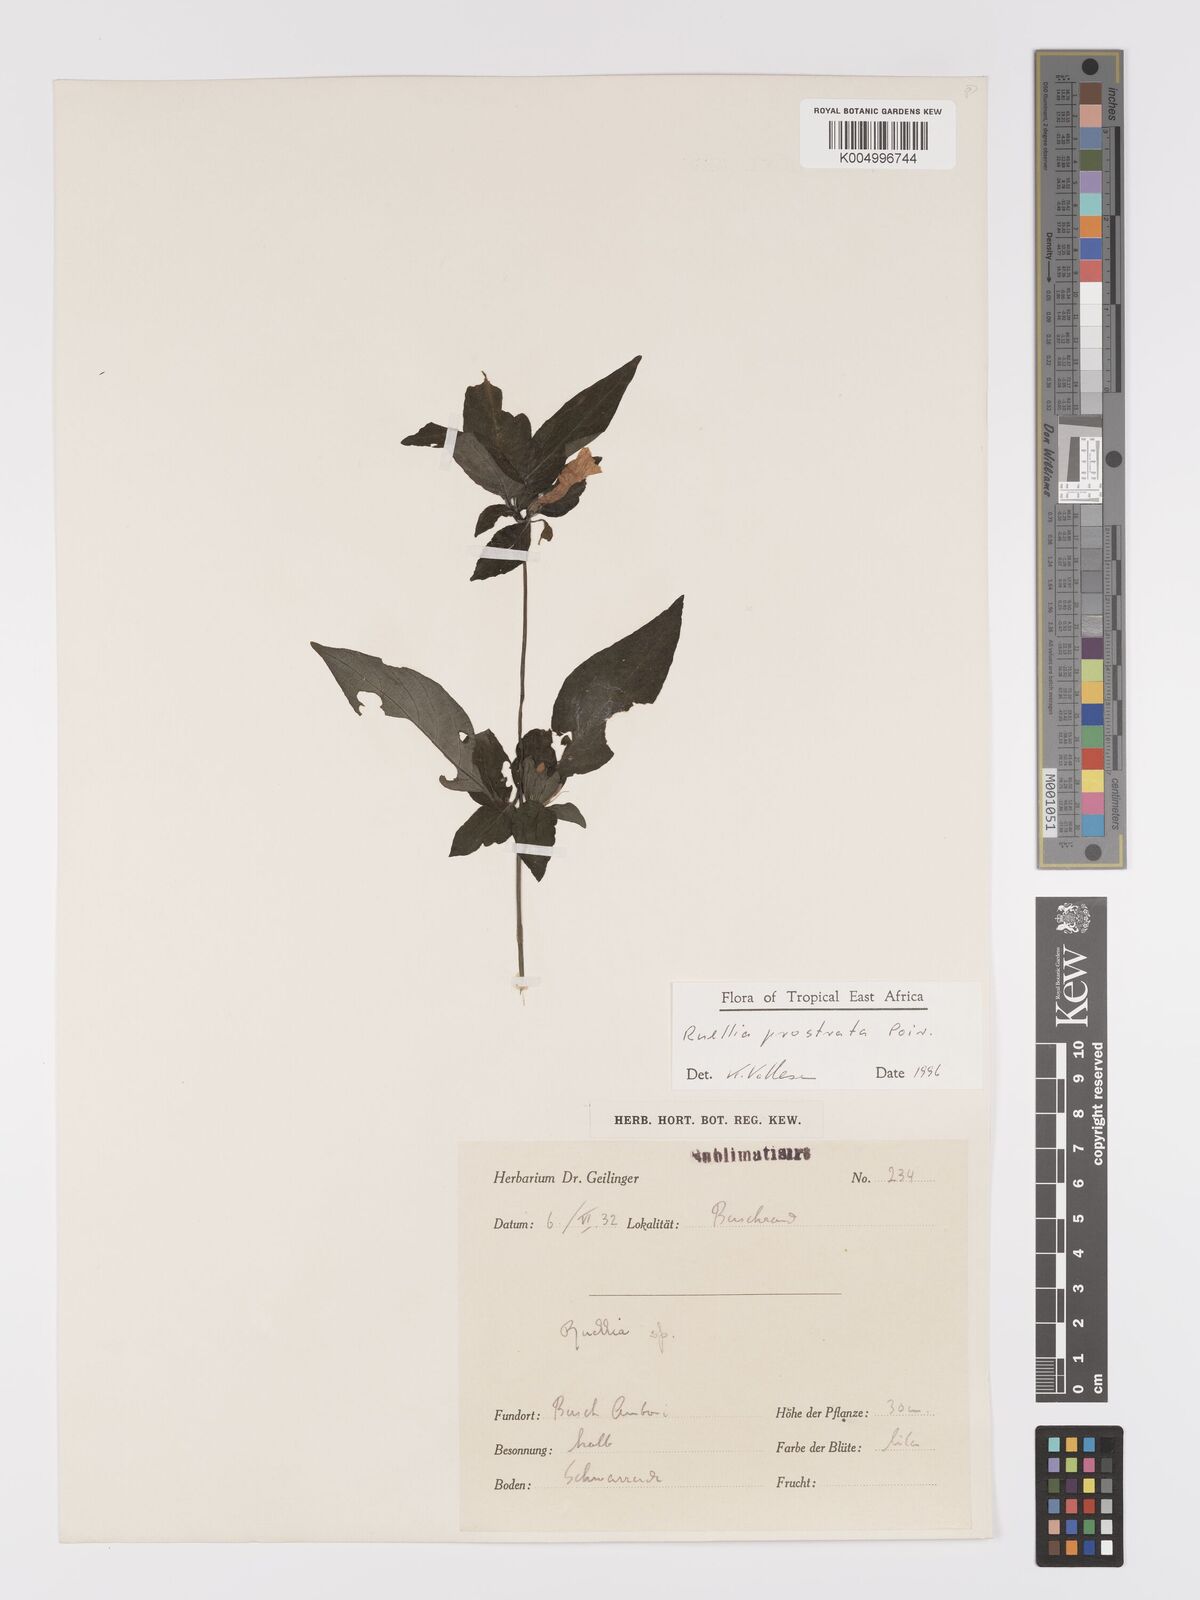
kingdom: Plantae
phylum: Tracheophyta
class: Magnoliopsida
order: Lamiales
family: Acanthaceae
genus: Ruellia
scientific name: Ruellia
